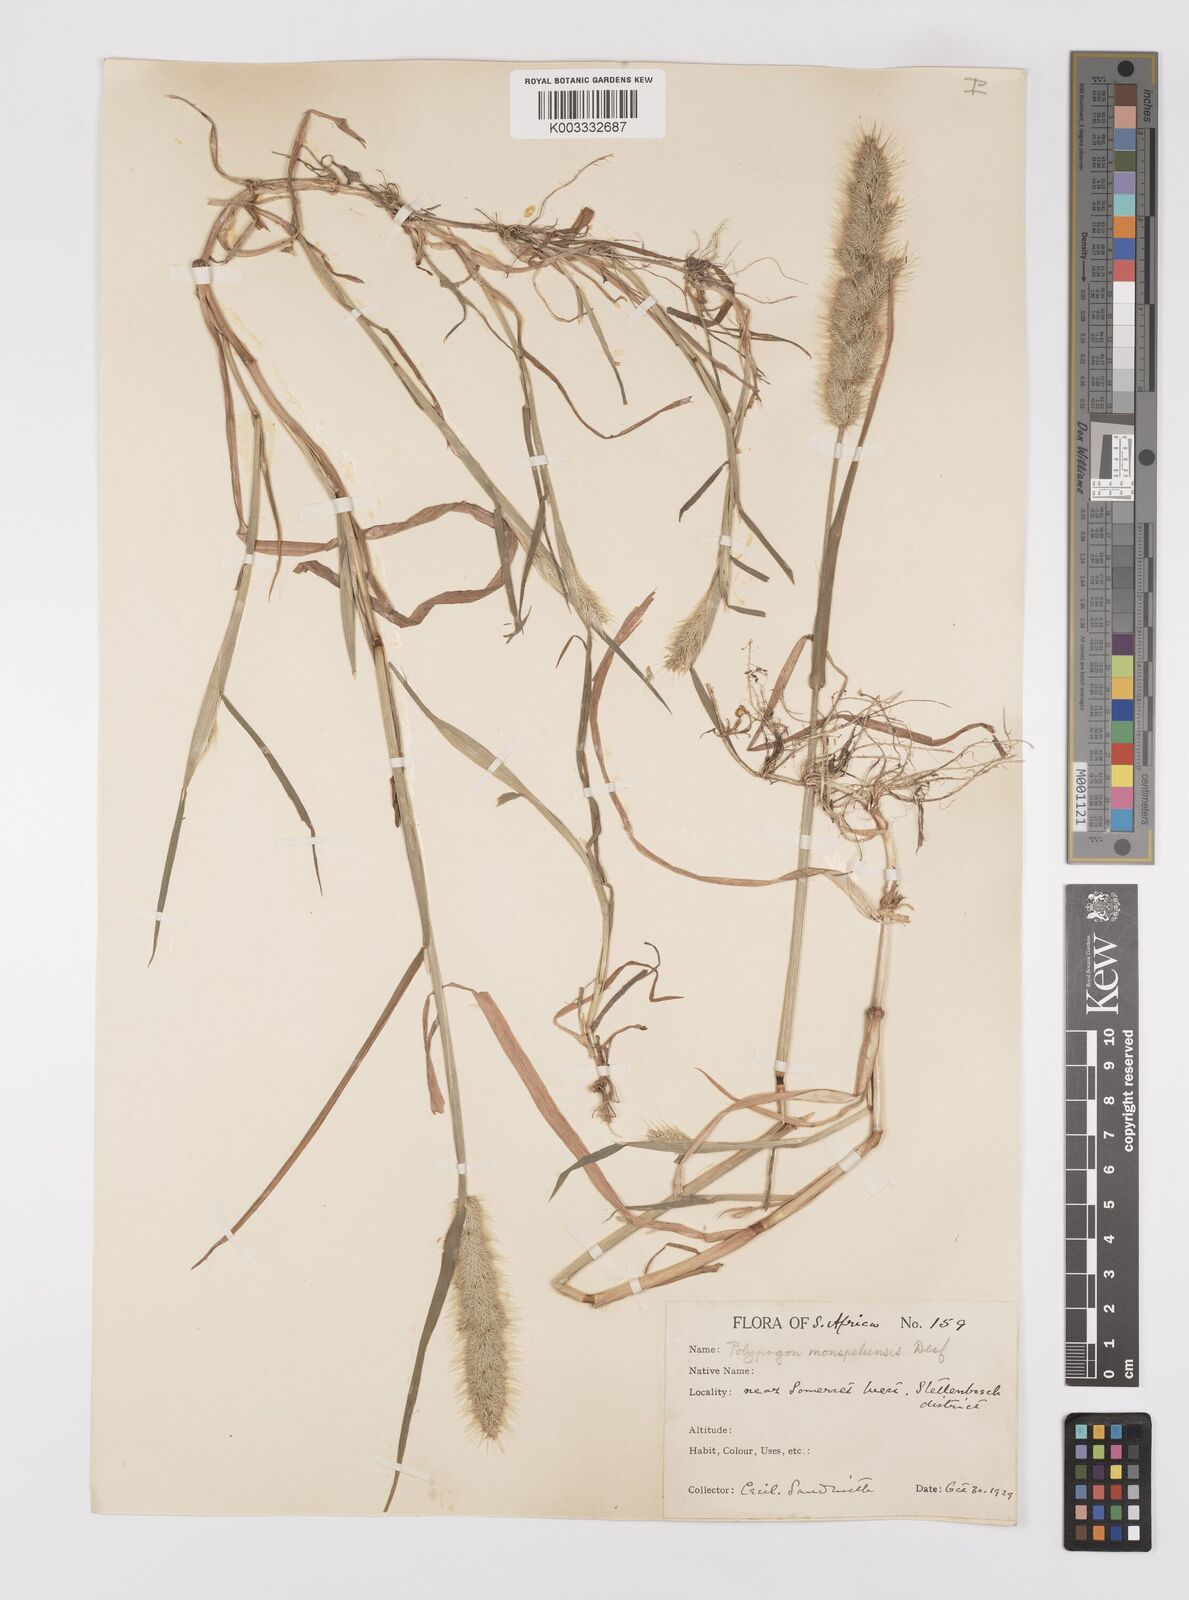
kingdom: Plantae
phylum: Tracheophyta
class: Liliopsida
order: Poales
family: Poaceae
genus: Polypogon
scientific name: Polypogon monspeliensis
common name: Annual rabbitsfoot grass
